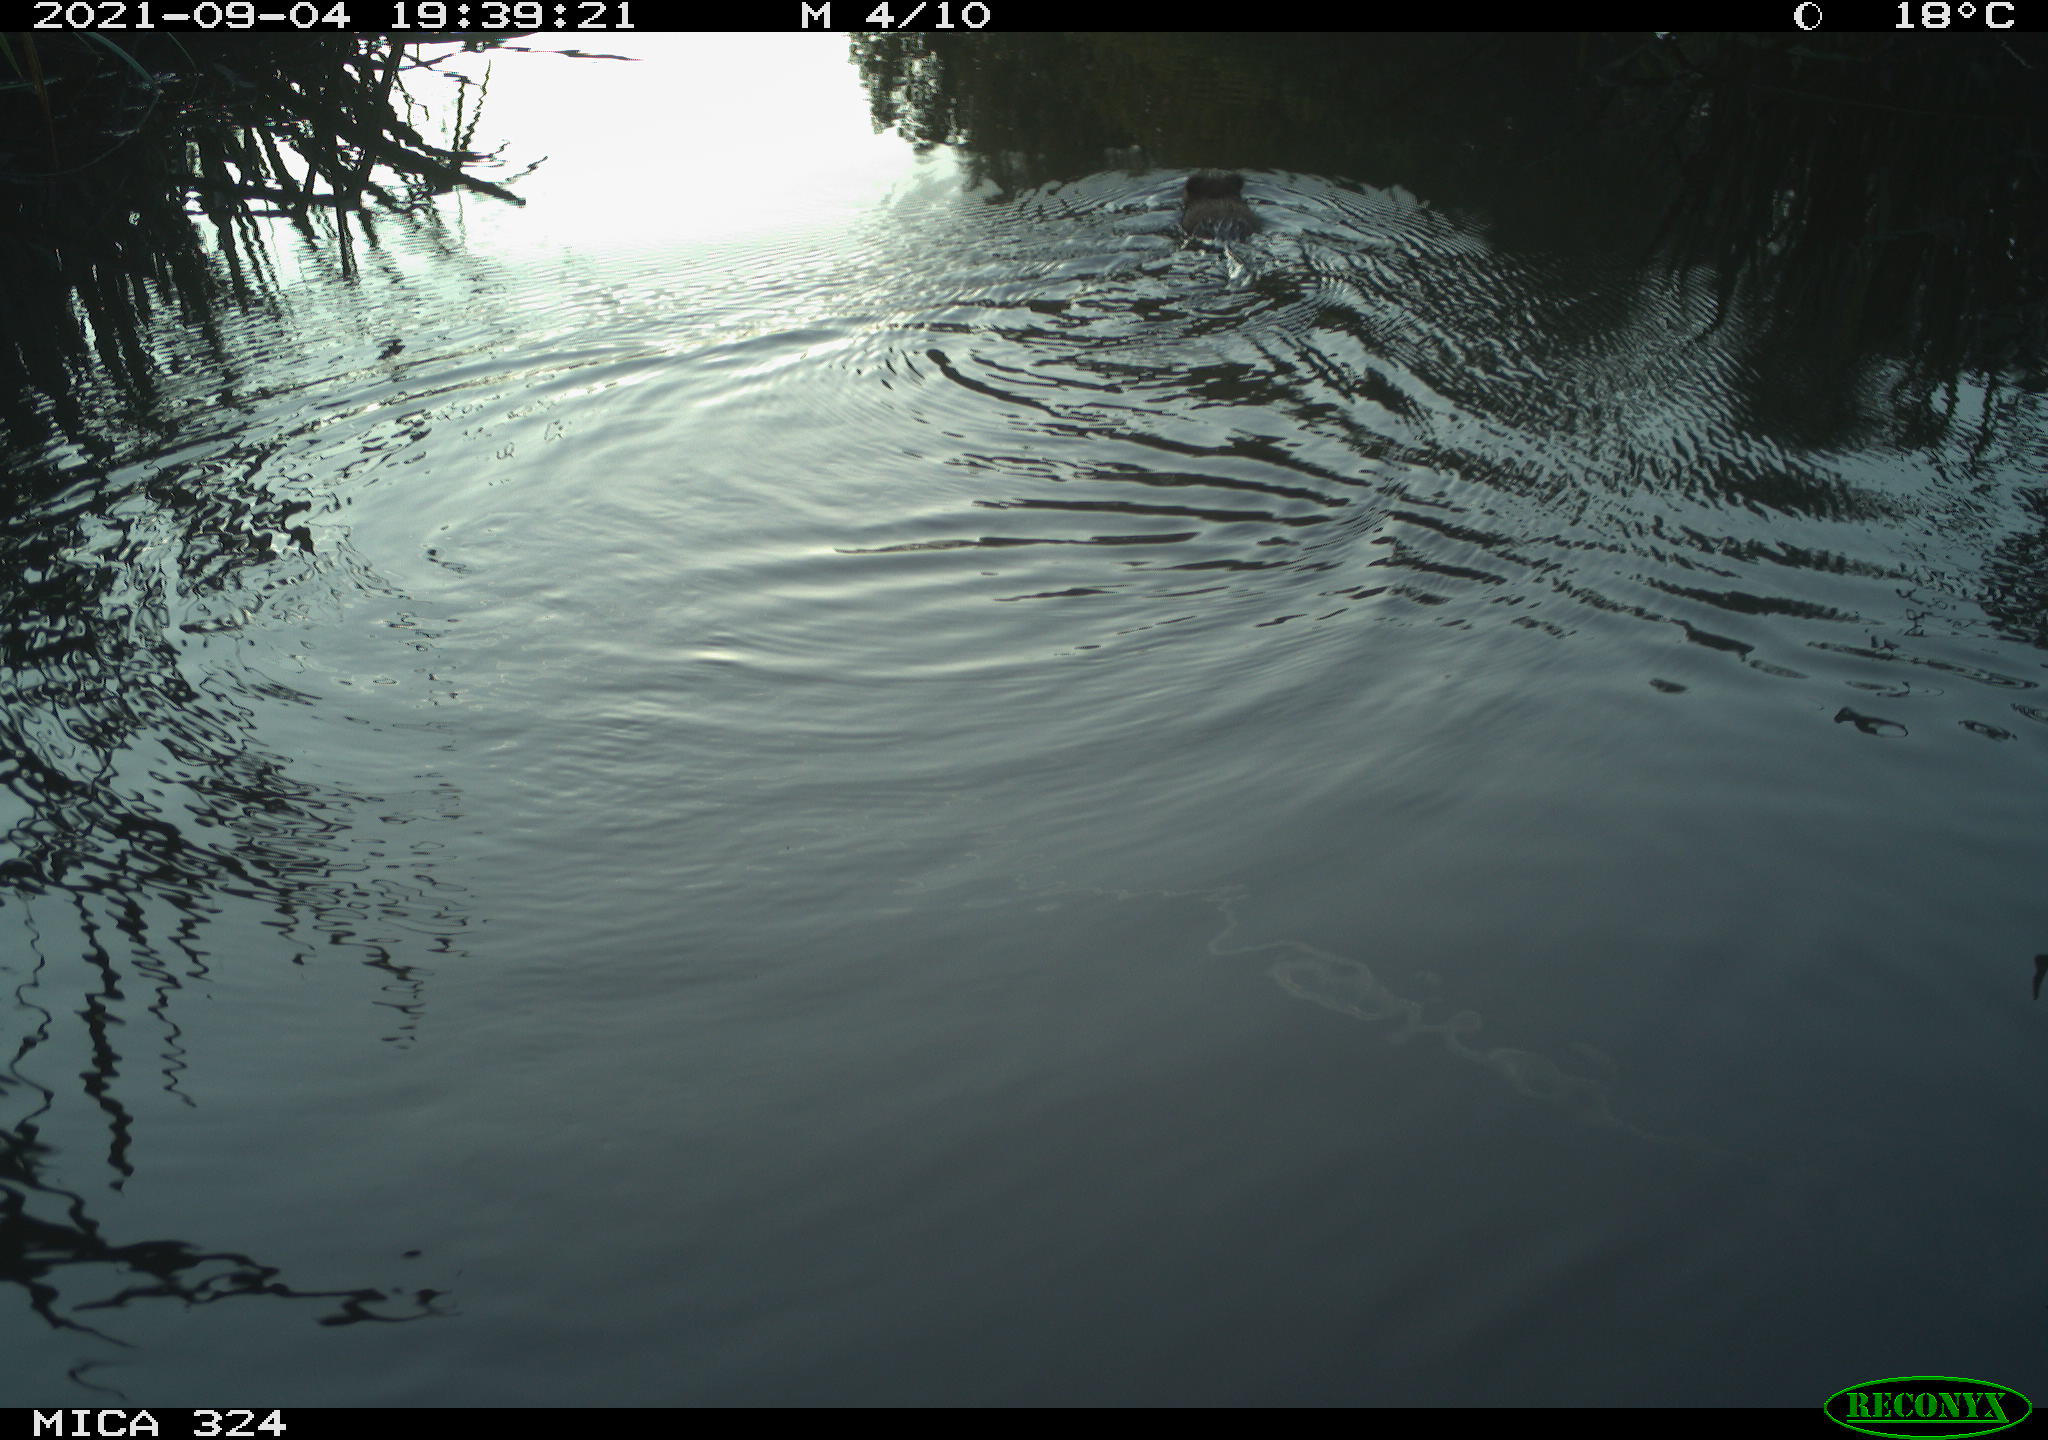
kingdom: Animalia
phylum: Chordata
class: Mammalia
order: Rodentia
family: Cricetidae
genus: Ondatra
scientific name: Ondatra zibethicus
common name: Muskrat
